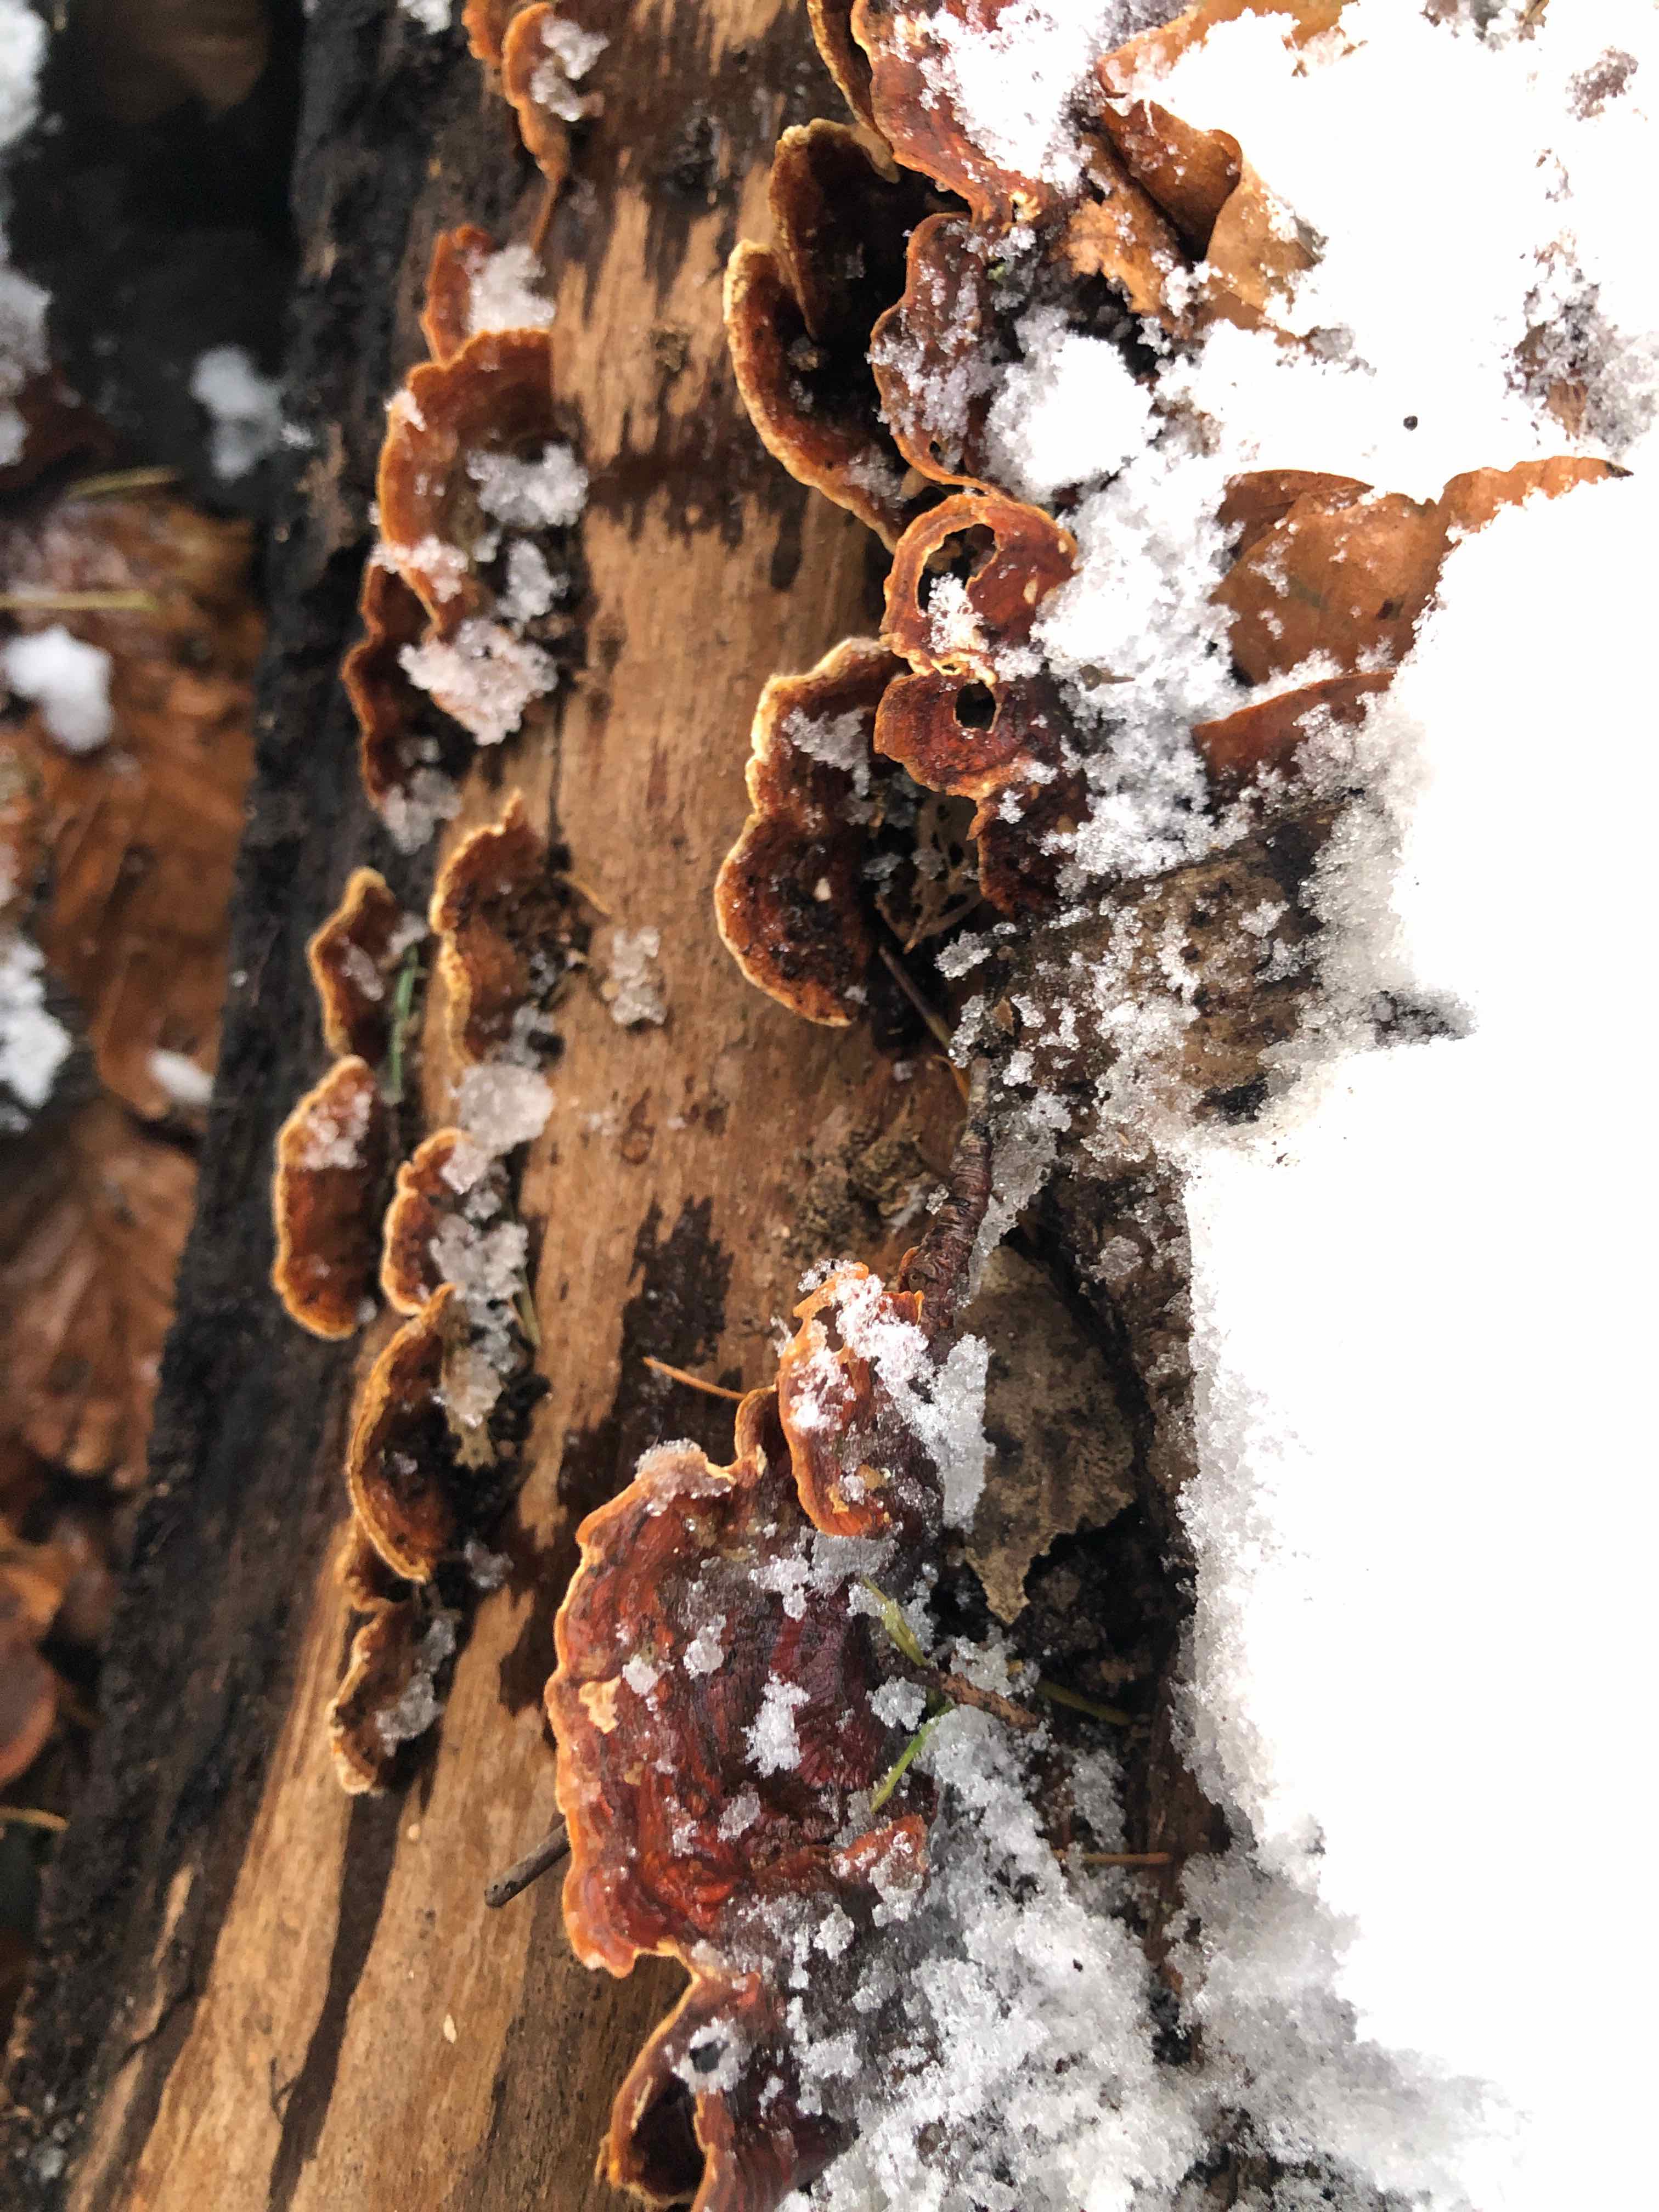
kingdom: Fungi
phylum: Basidiomycota
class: Agaricomycetes
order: Russulales
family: Stereaceae
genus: Stereum
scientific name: Stereum subtomentosum
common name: smuk lædersvamp
